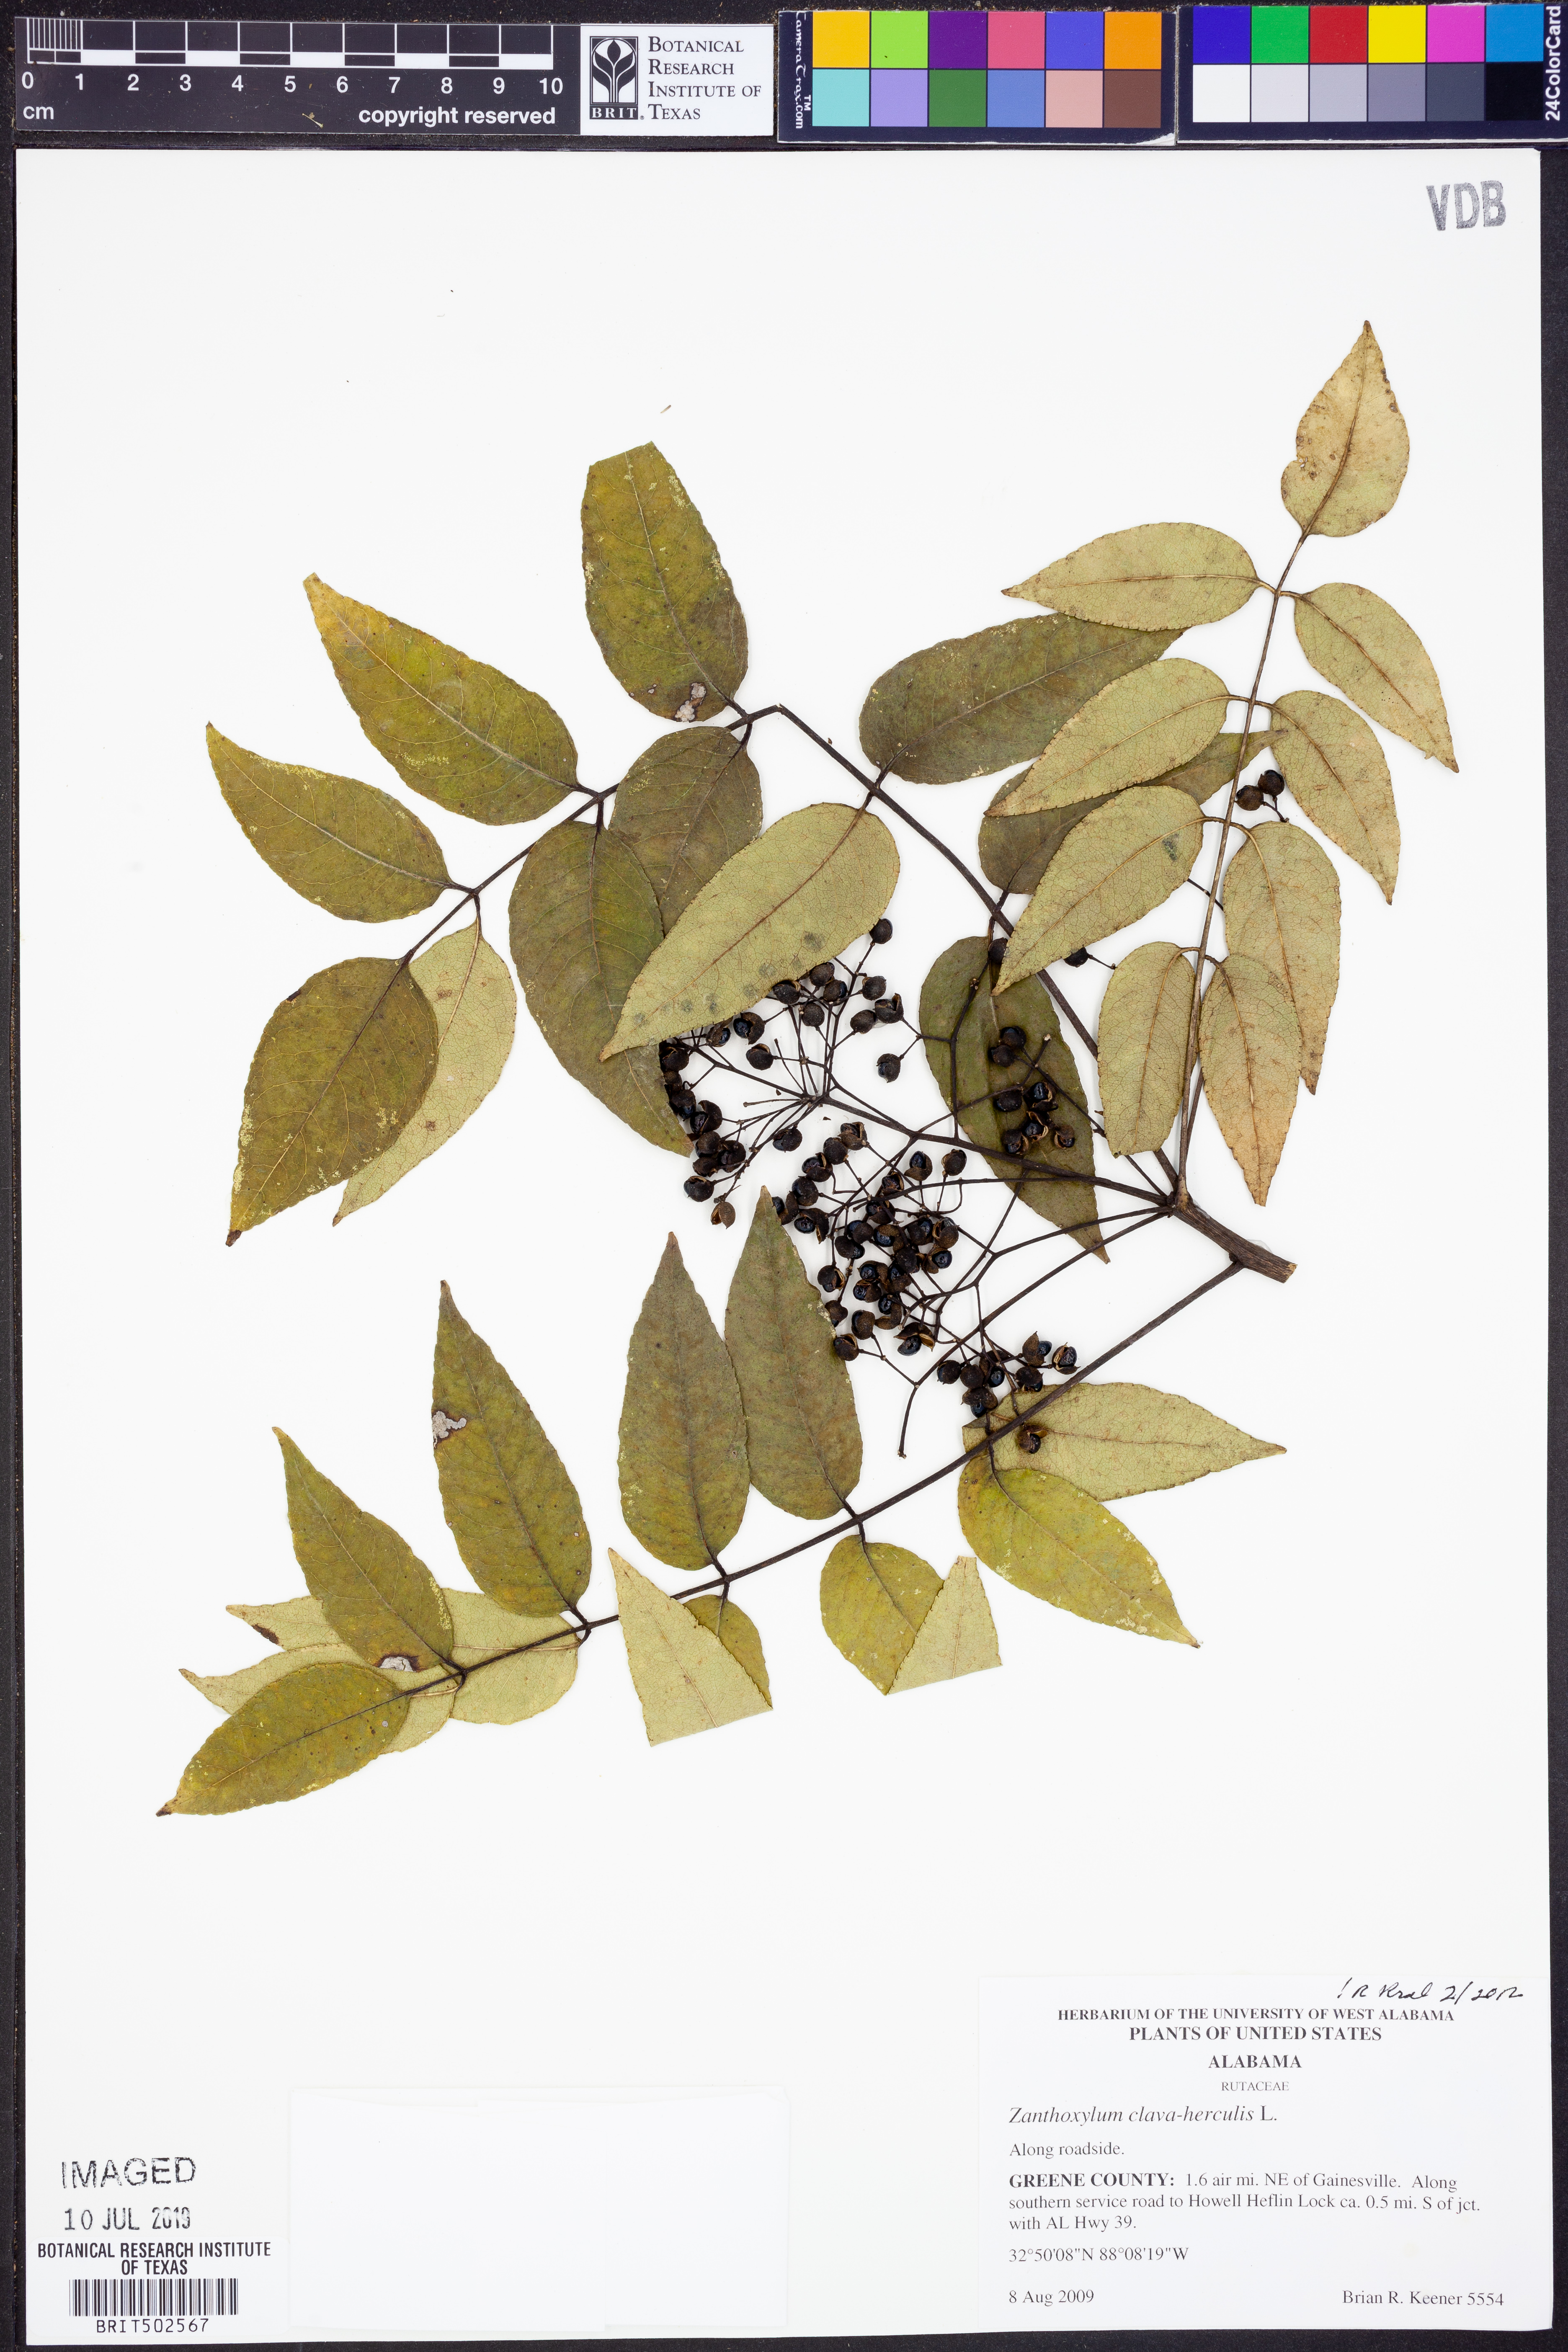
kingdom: Plantae
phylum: Tracheophyta
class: Magnoliopsida
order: Sapindales
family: Rutaceae
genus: Zanthoxylum
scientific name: Zanthoxylum avicennae
